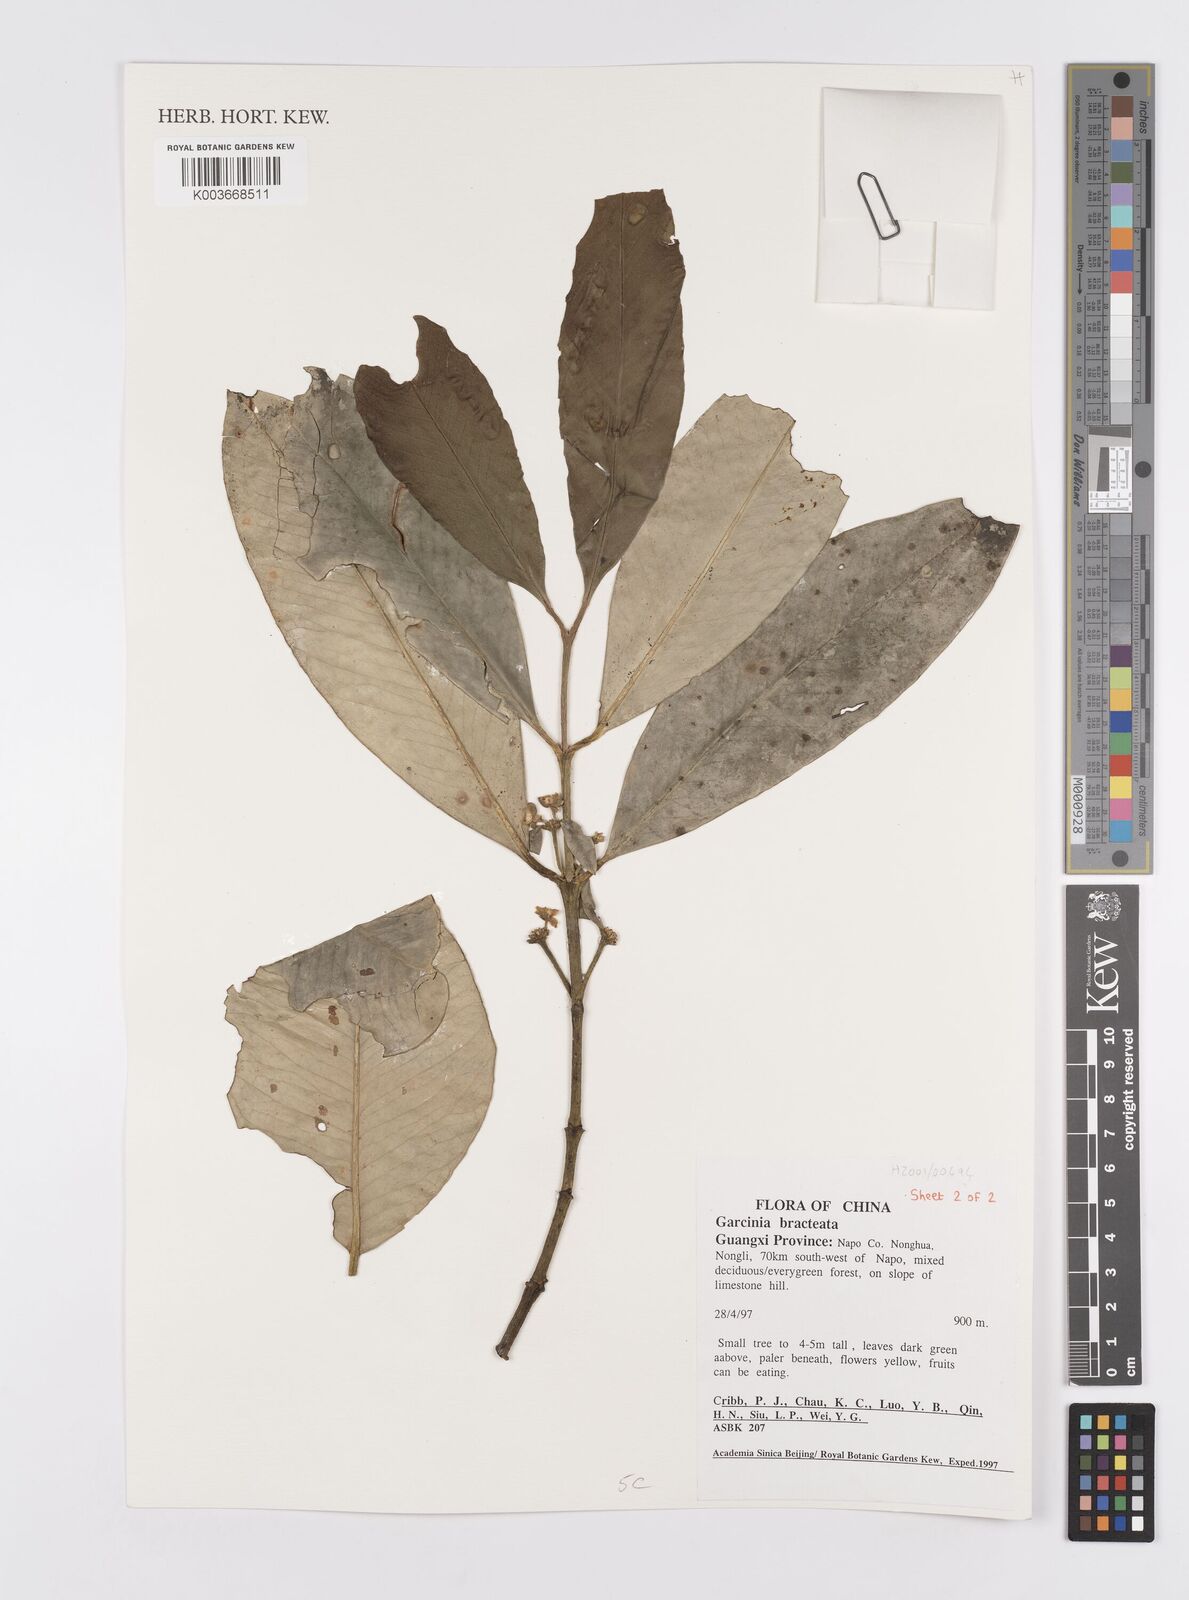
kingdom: Plantae
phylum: Tracheophyta
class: Magnoliopsida
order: Malpighiales
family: Clusiaceae
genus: Garcinia
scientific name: Garcinia anomala
